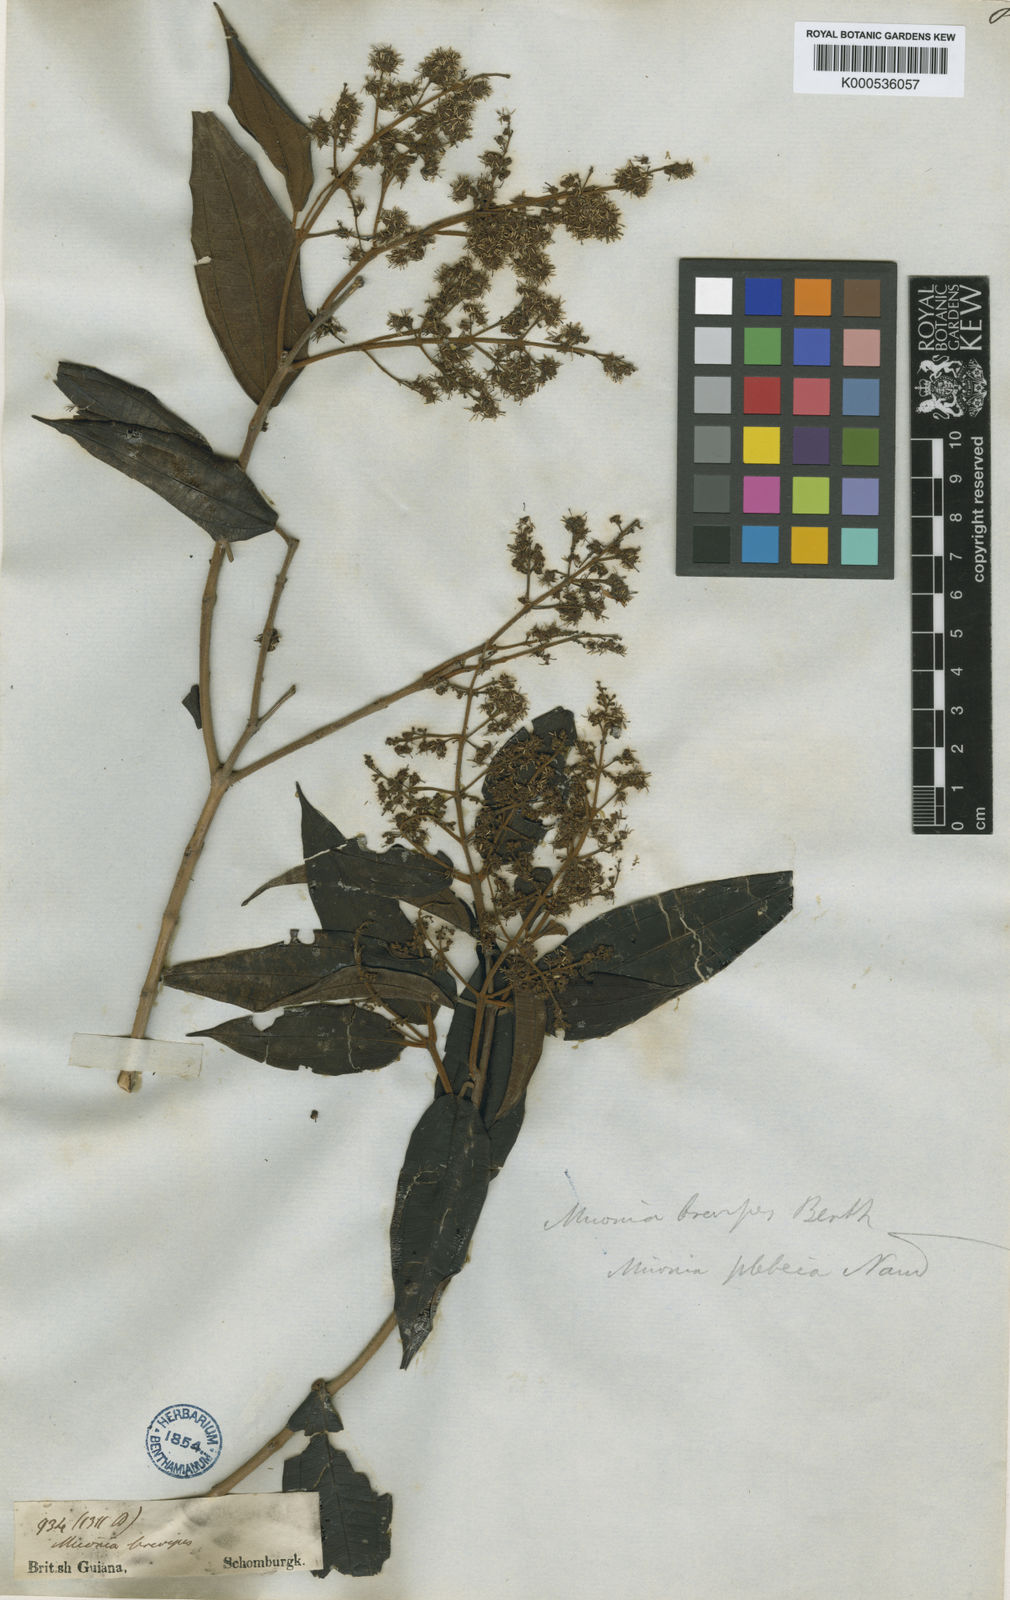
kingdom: Plantae
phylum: Tracheophyta
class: Magnoliopsida
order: Myrtales
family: Melastomataceae
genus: Miconia
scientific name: Miconia brevipes
